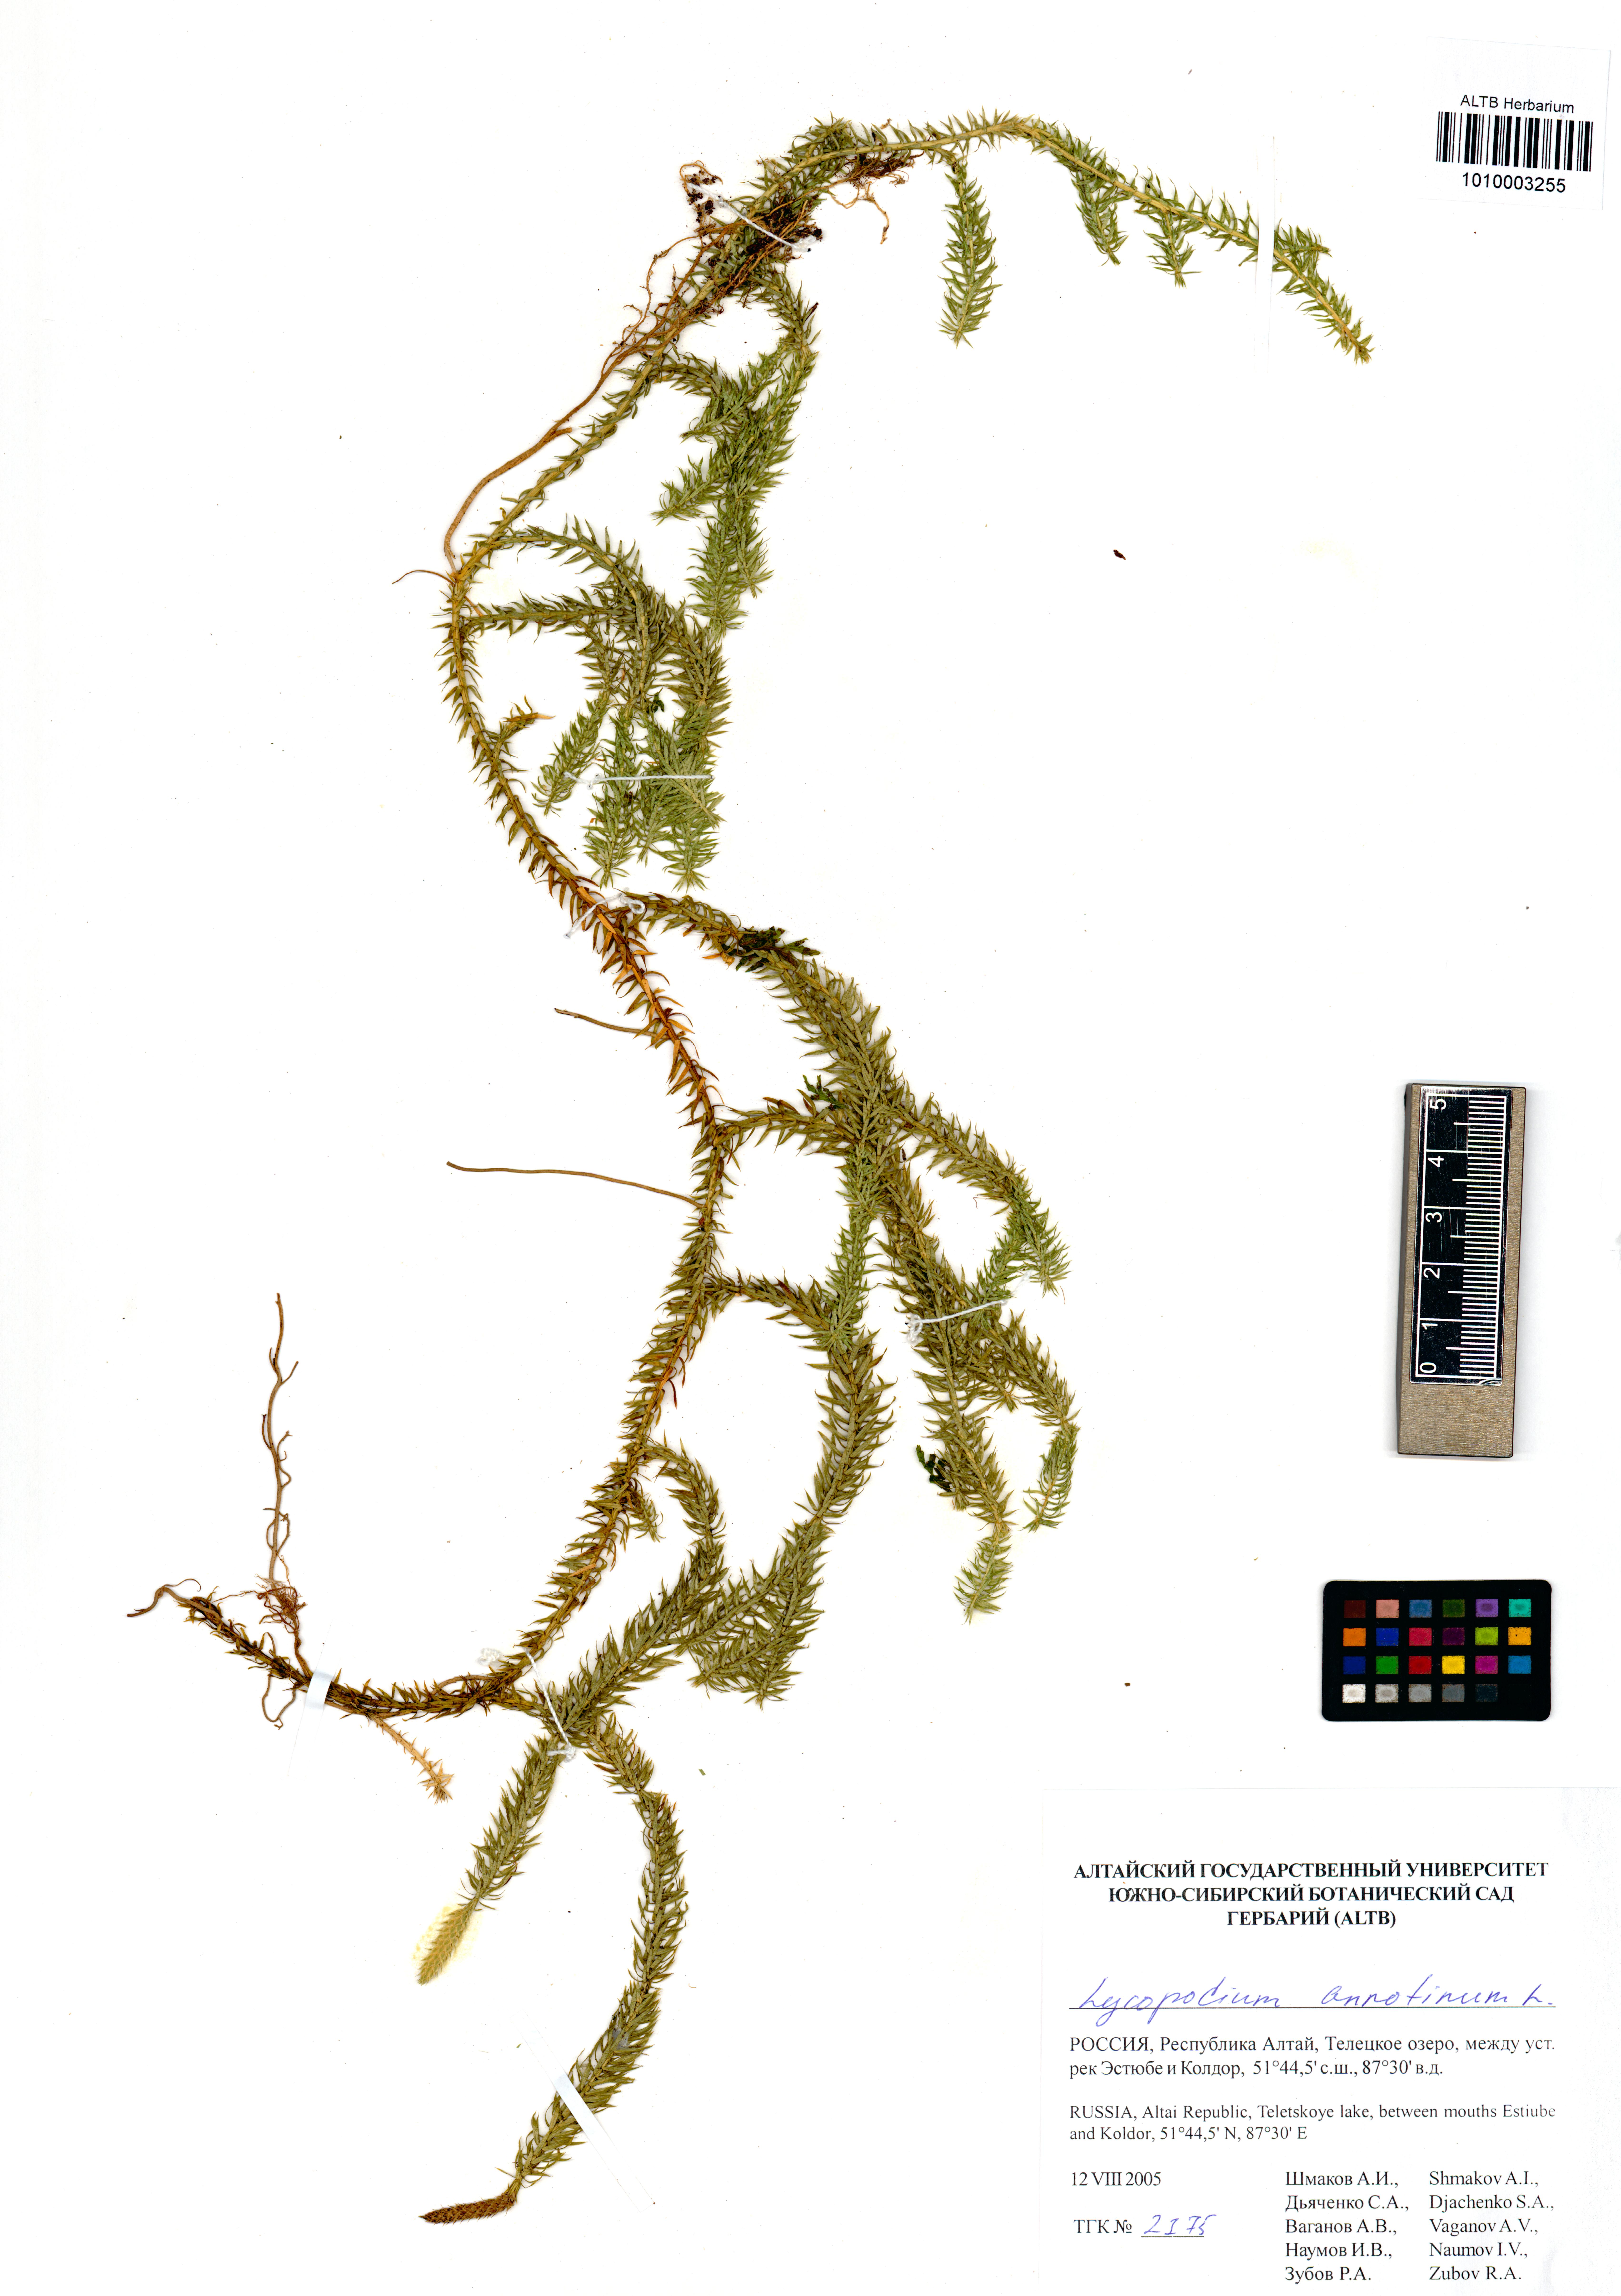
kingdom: Plantae
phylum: Tracheophyta
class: Lycopodiopsida
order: Lycopodiales
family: Lycopodiaceae
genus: Spinulum
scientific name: Spinulum annotinum
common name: Interrupted club-moss
